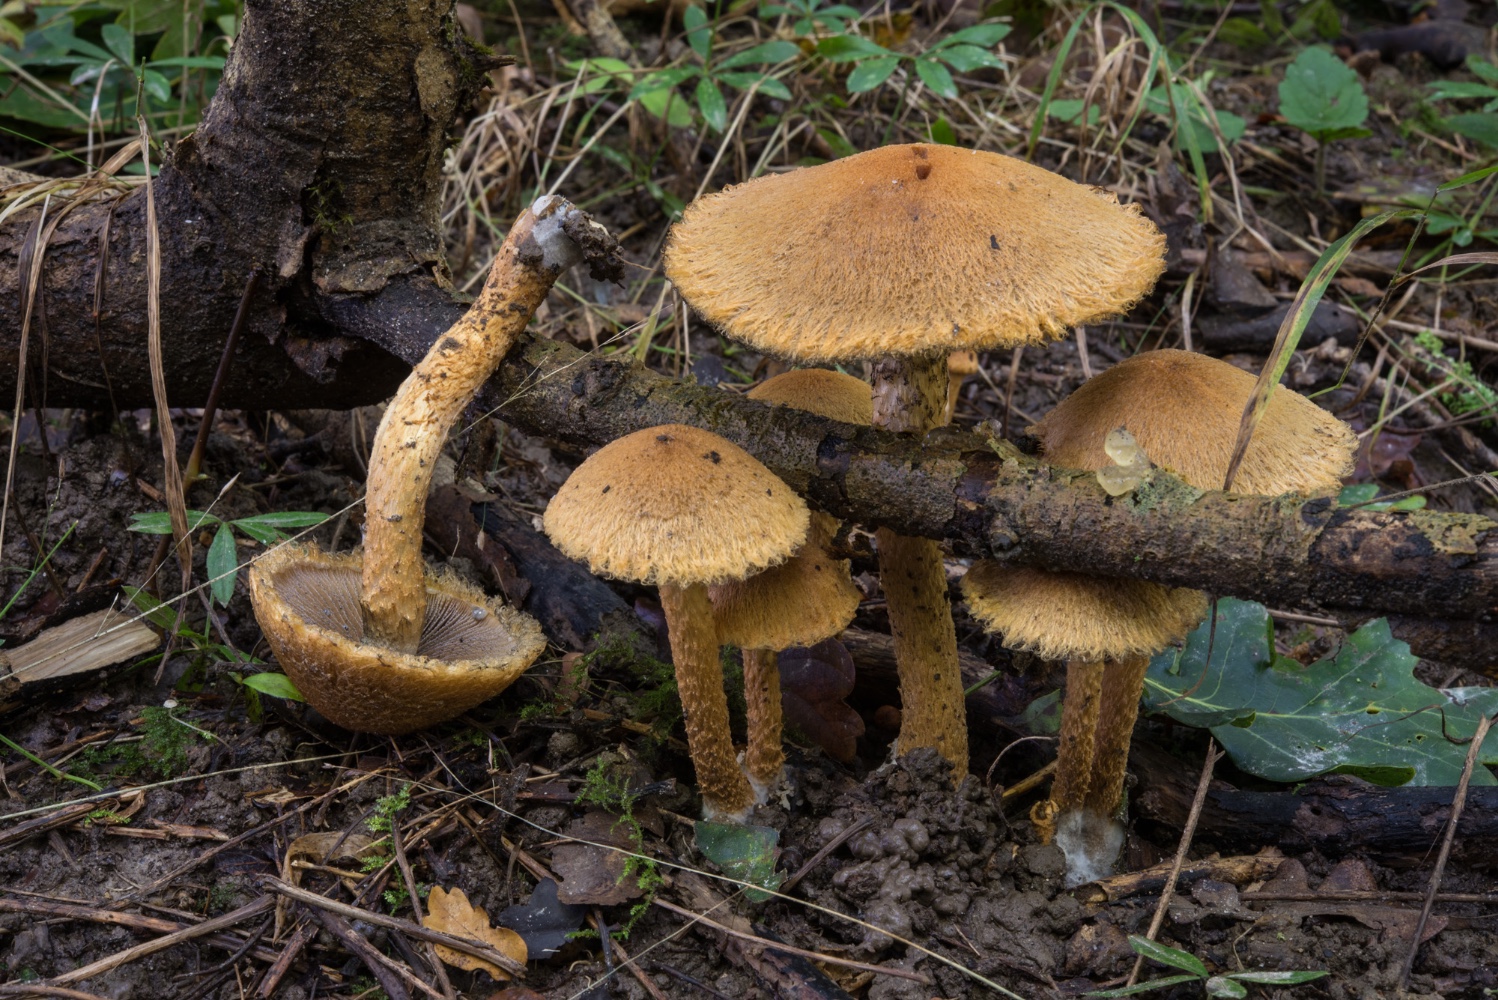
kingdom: Fungi
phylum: Basidiomycota
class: Agaricomycetes
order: Agaricales
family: Psathyrellaceae
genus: Lacrymaria
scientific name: Lacrymaria pyrotricha
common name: ildhåret mørkhat
